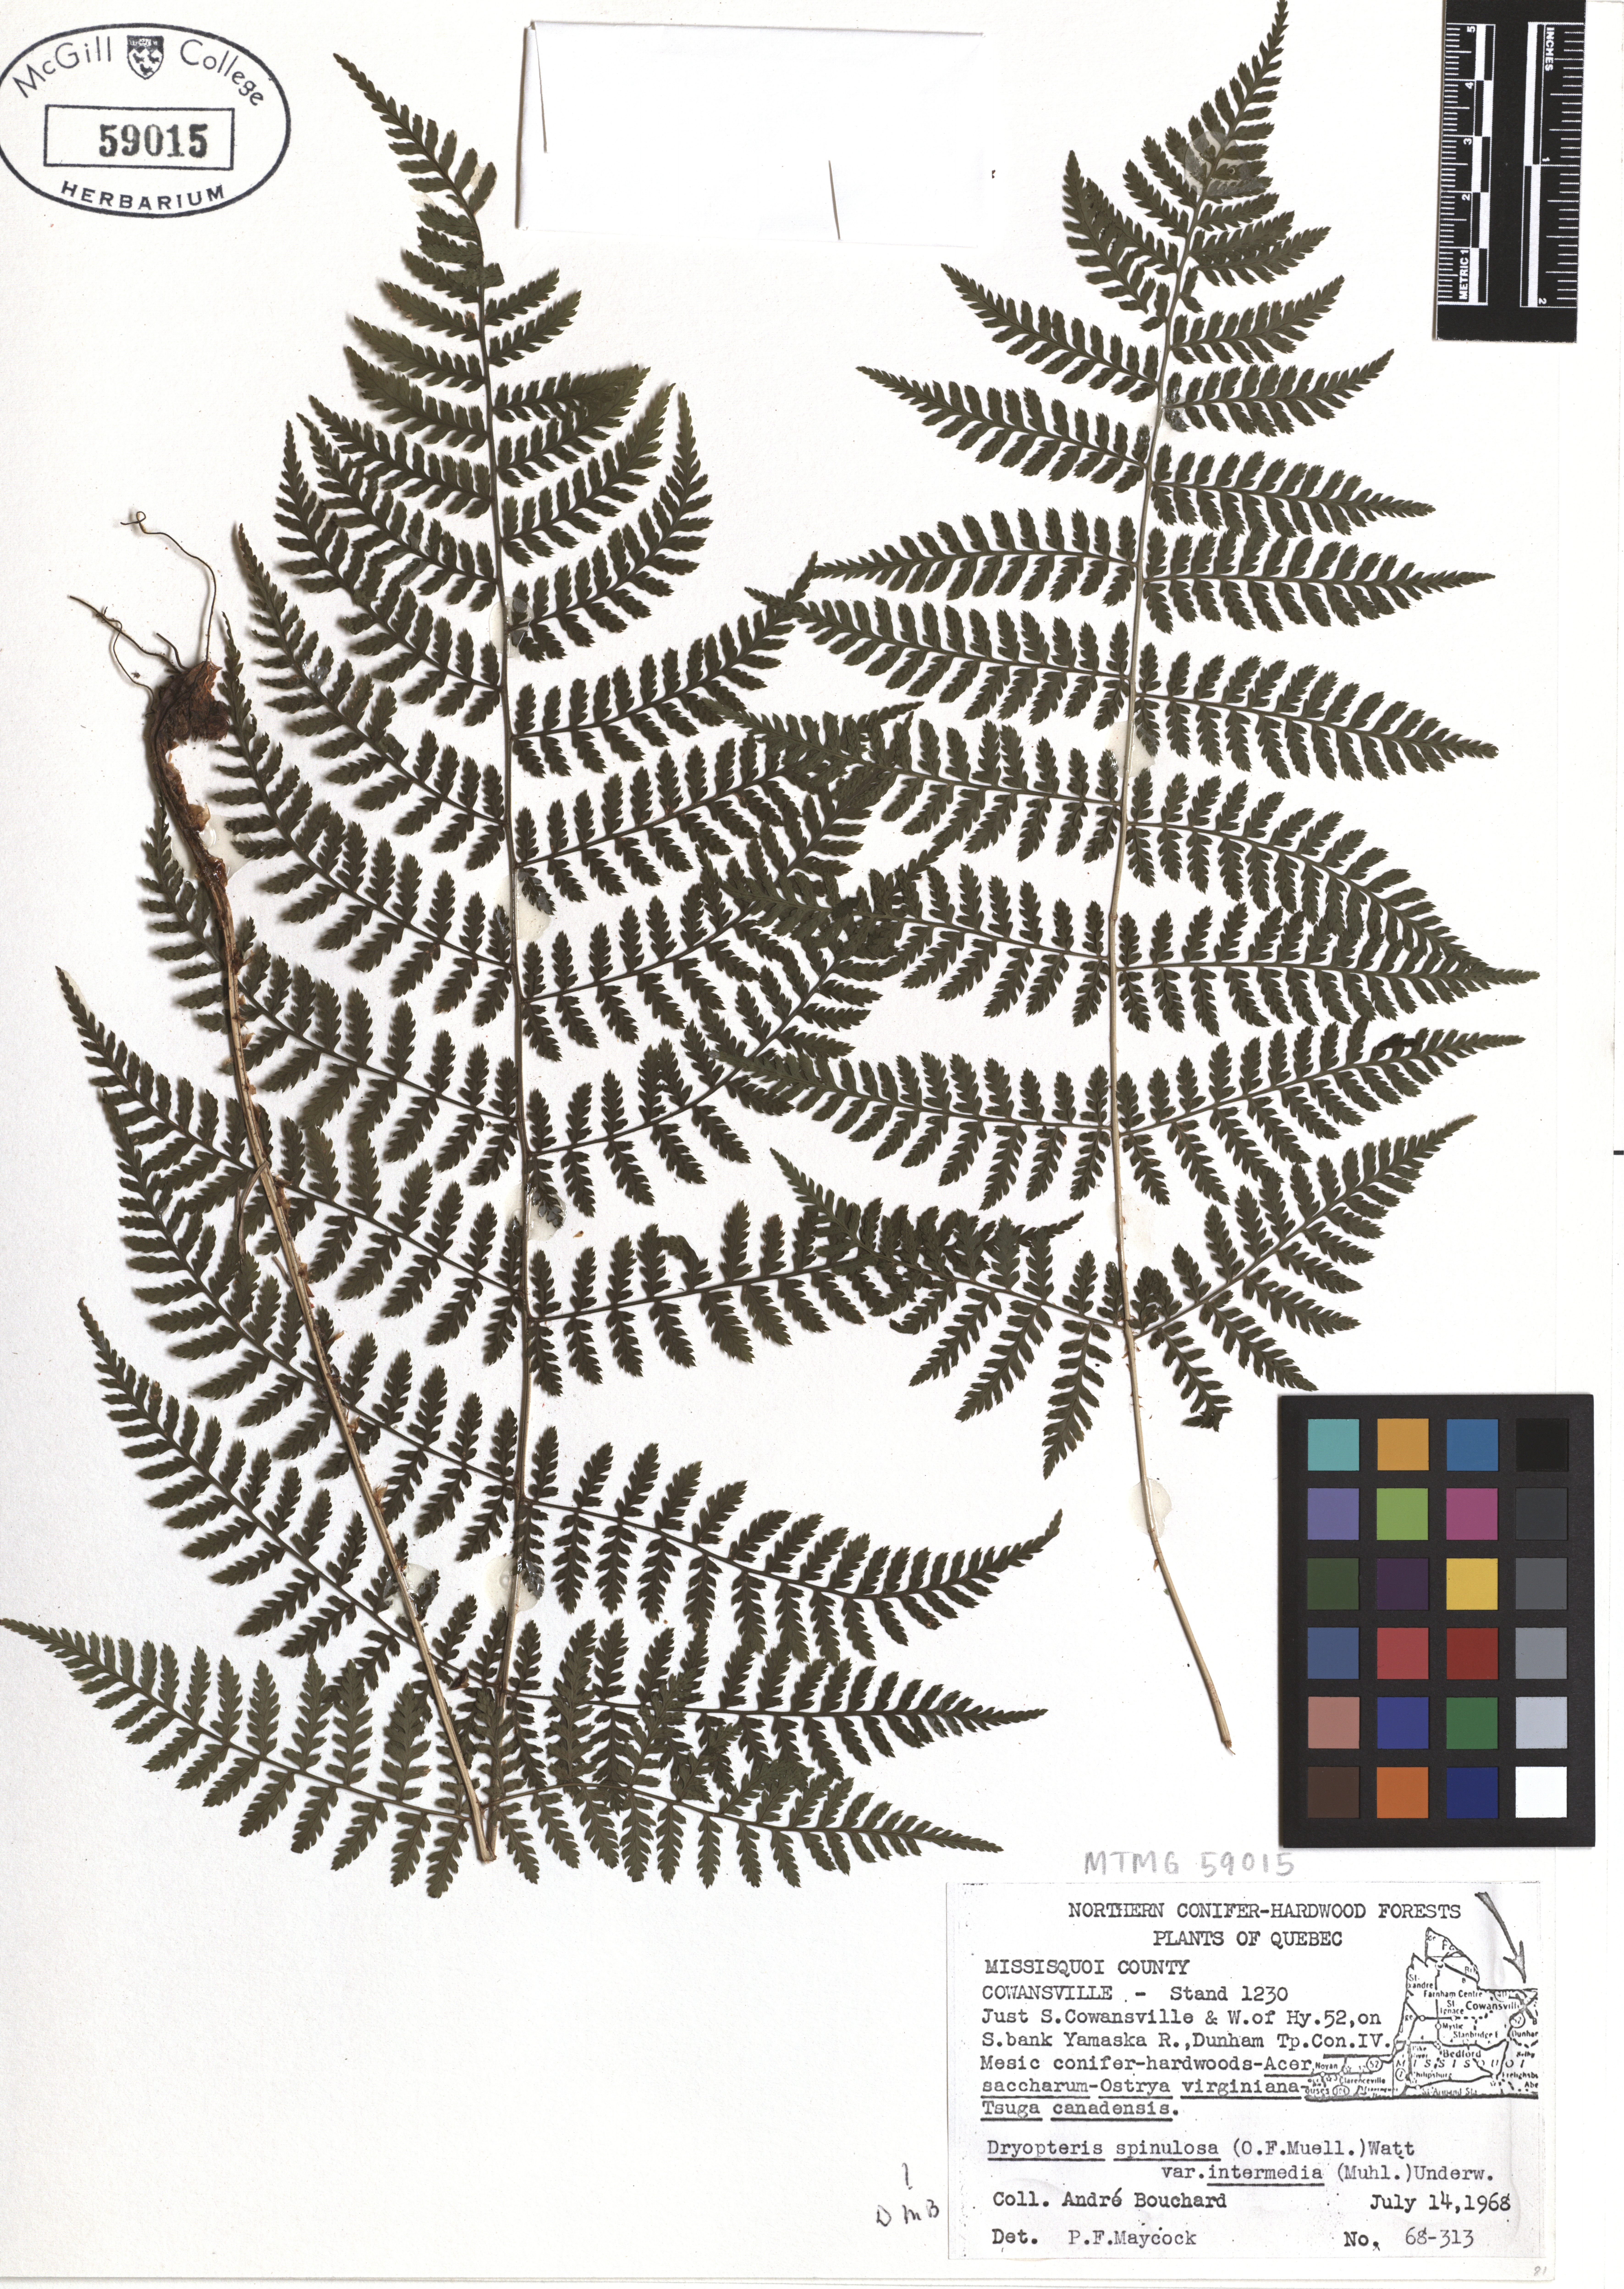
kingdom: Plantae
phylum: Tracheophyta
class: Polypodiopsida
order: Polypodiales
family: Dryopteridaceae
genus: Dryopteris
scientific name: Dryopteris intermedia
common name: Evergreen wood fern
